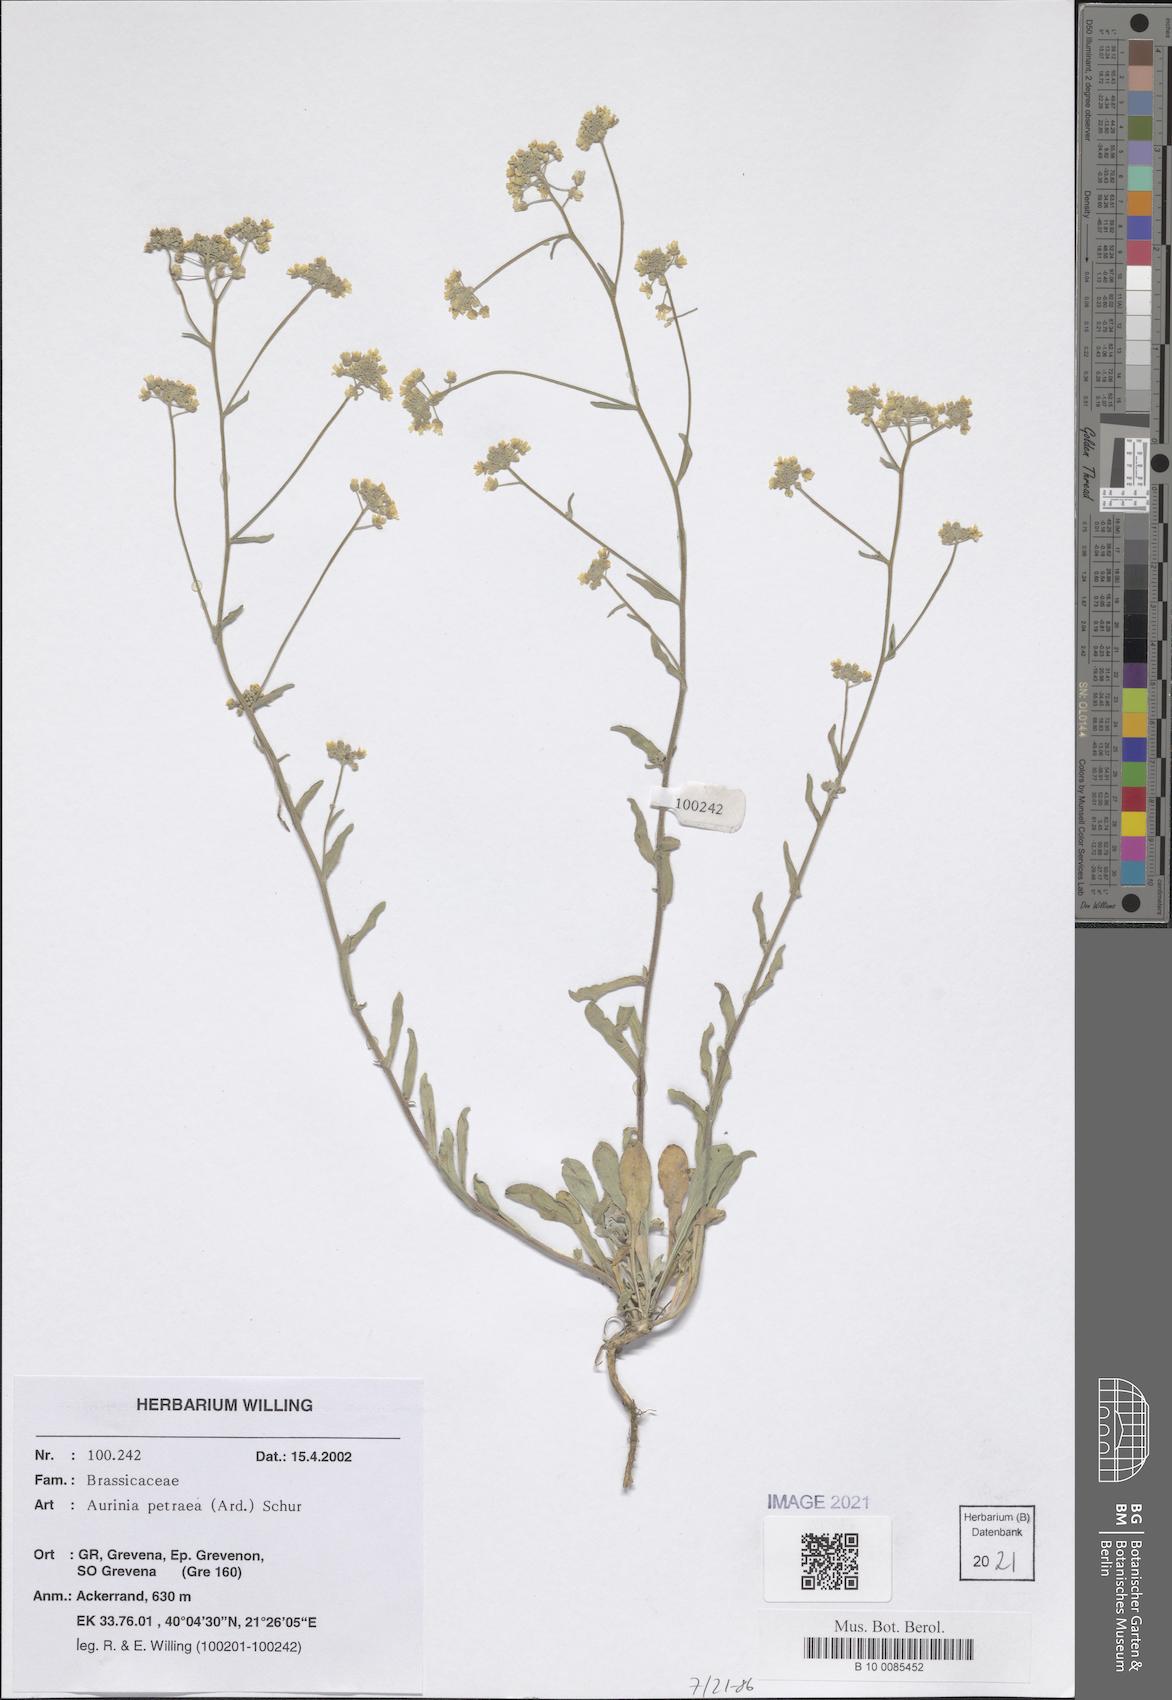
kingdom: Plantae
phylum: Tracheophyta
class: Magnoliopsida
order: Brassicales
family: Brassicaceae
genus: Aurinia
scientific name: Aurinia petraea
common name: Goldentuft
